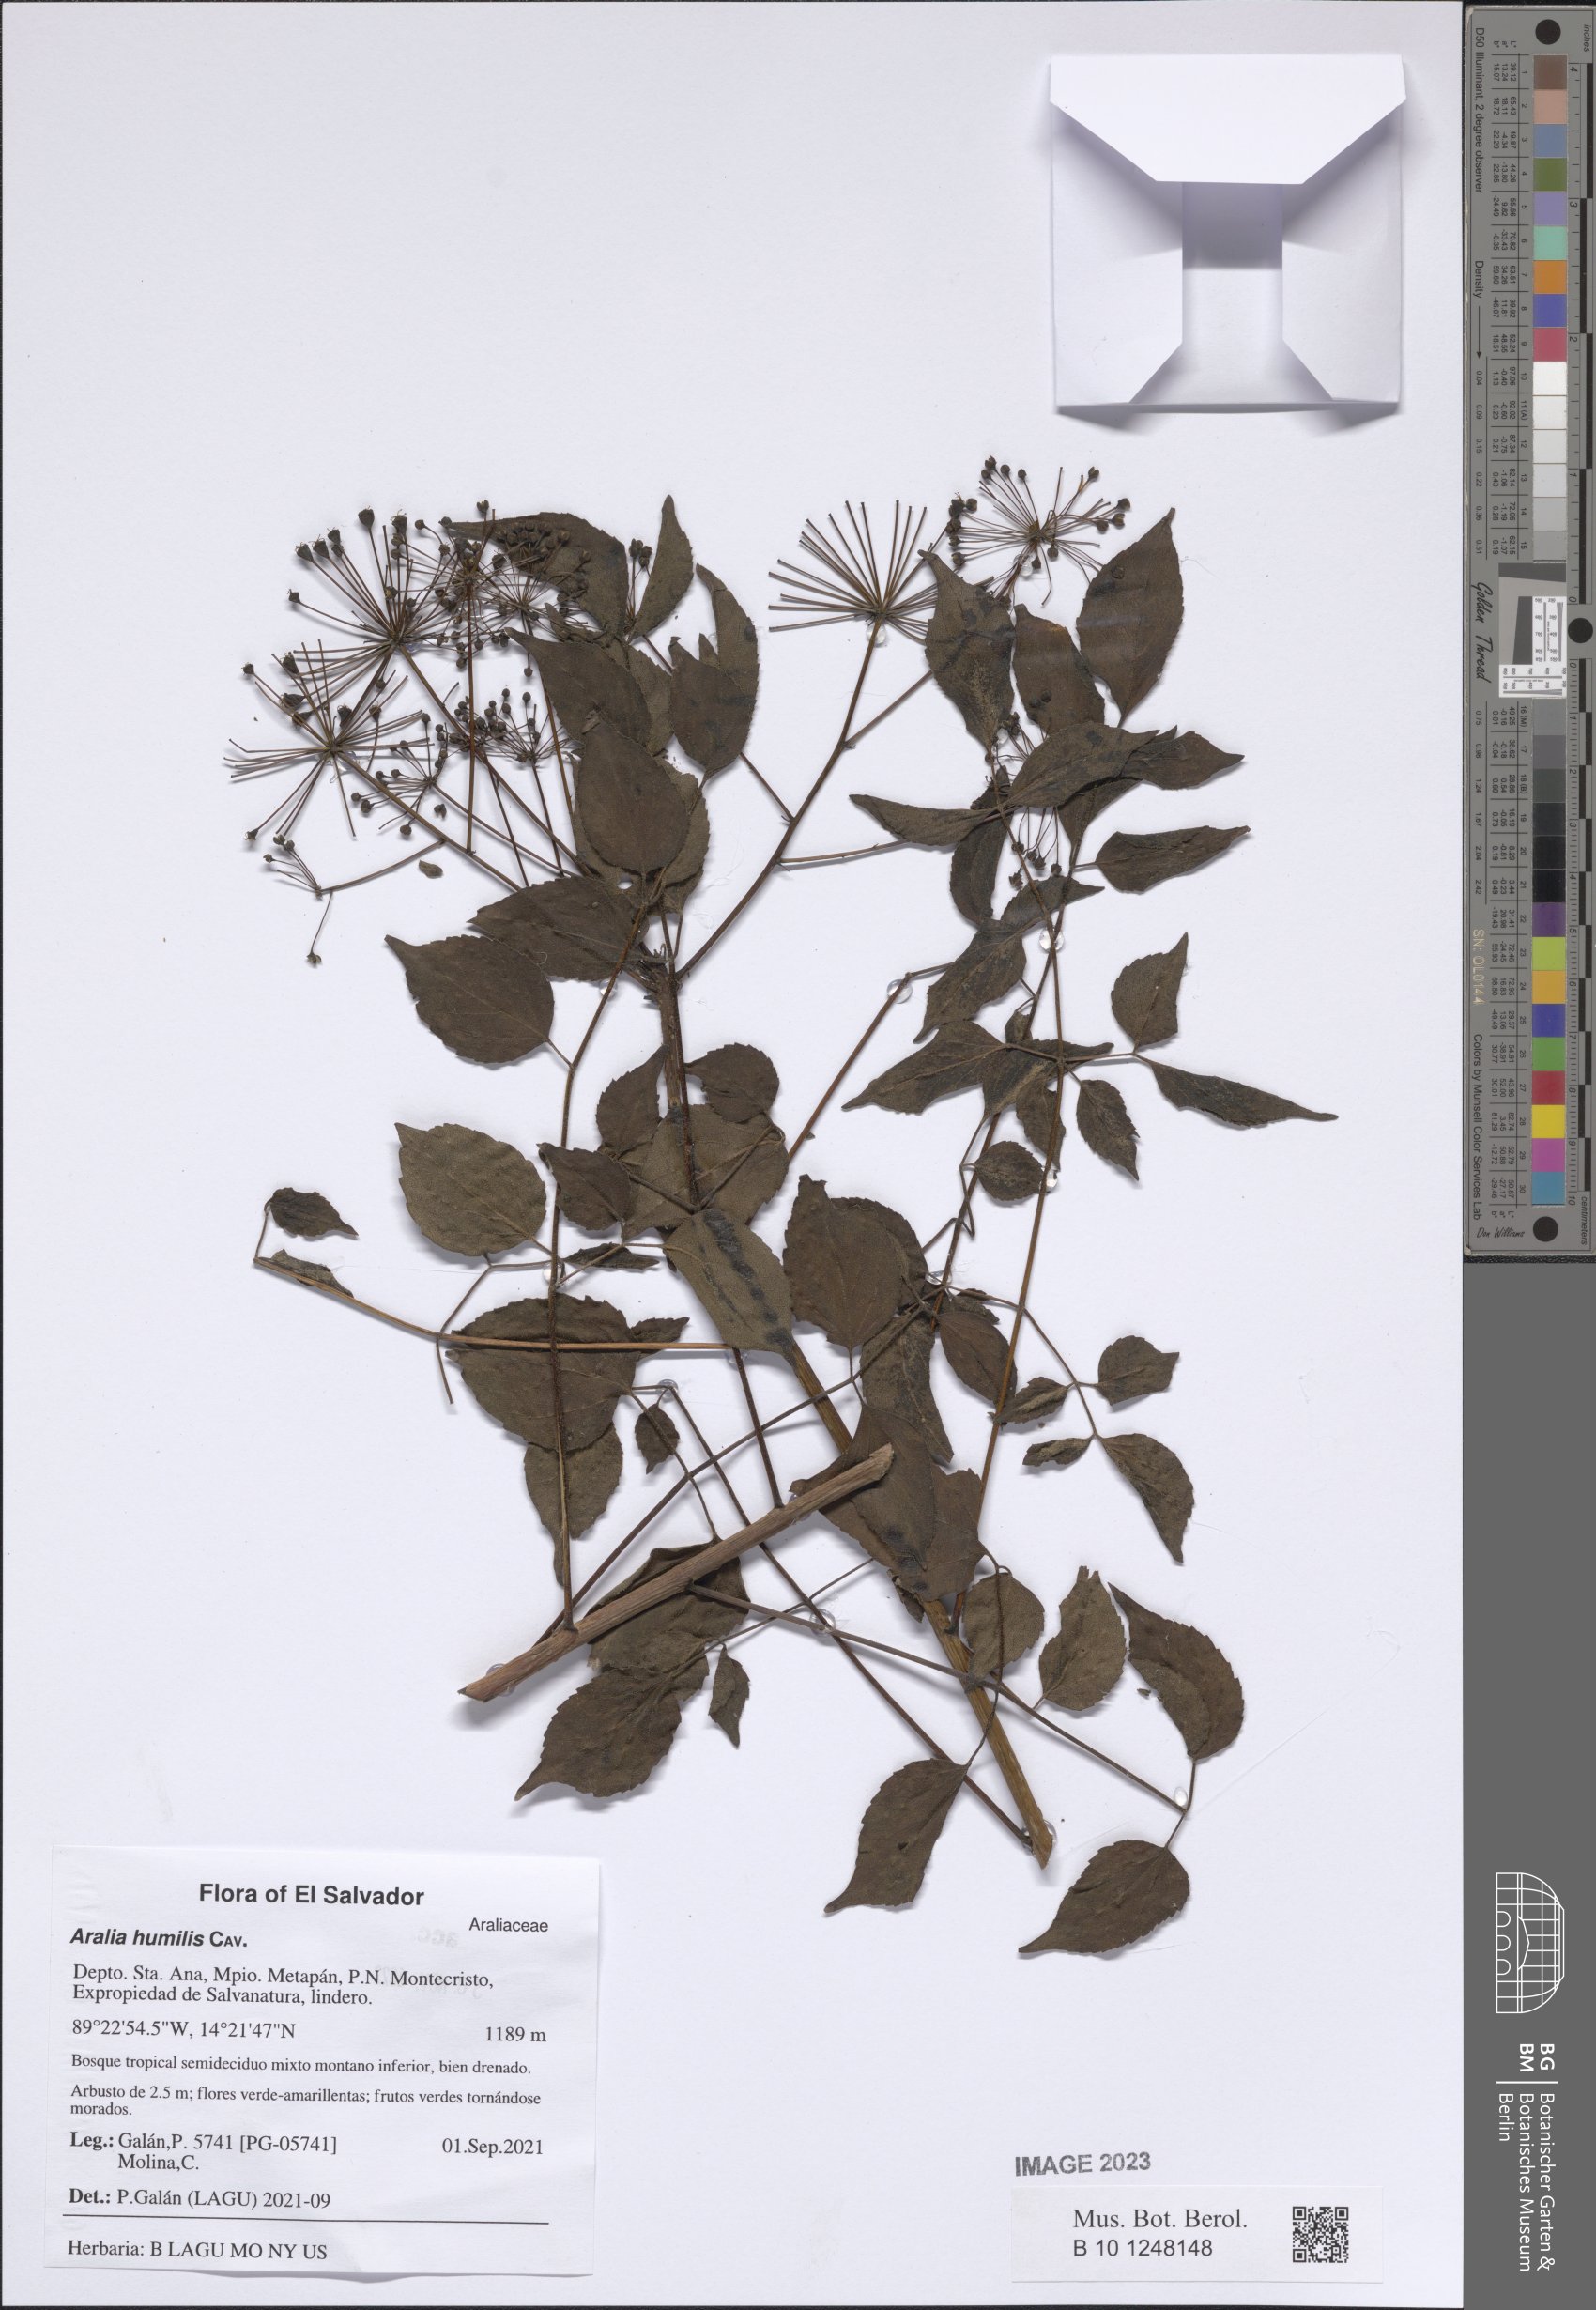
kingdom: Plantae
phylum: Tracheophyta
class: Magnoliopsida
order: Apiales
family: Araliaceae
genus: Aralia
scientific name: Aralia humilis
